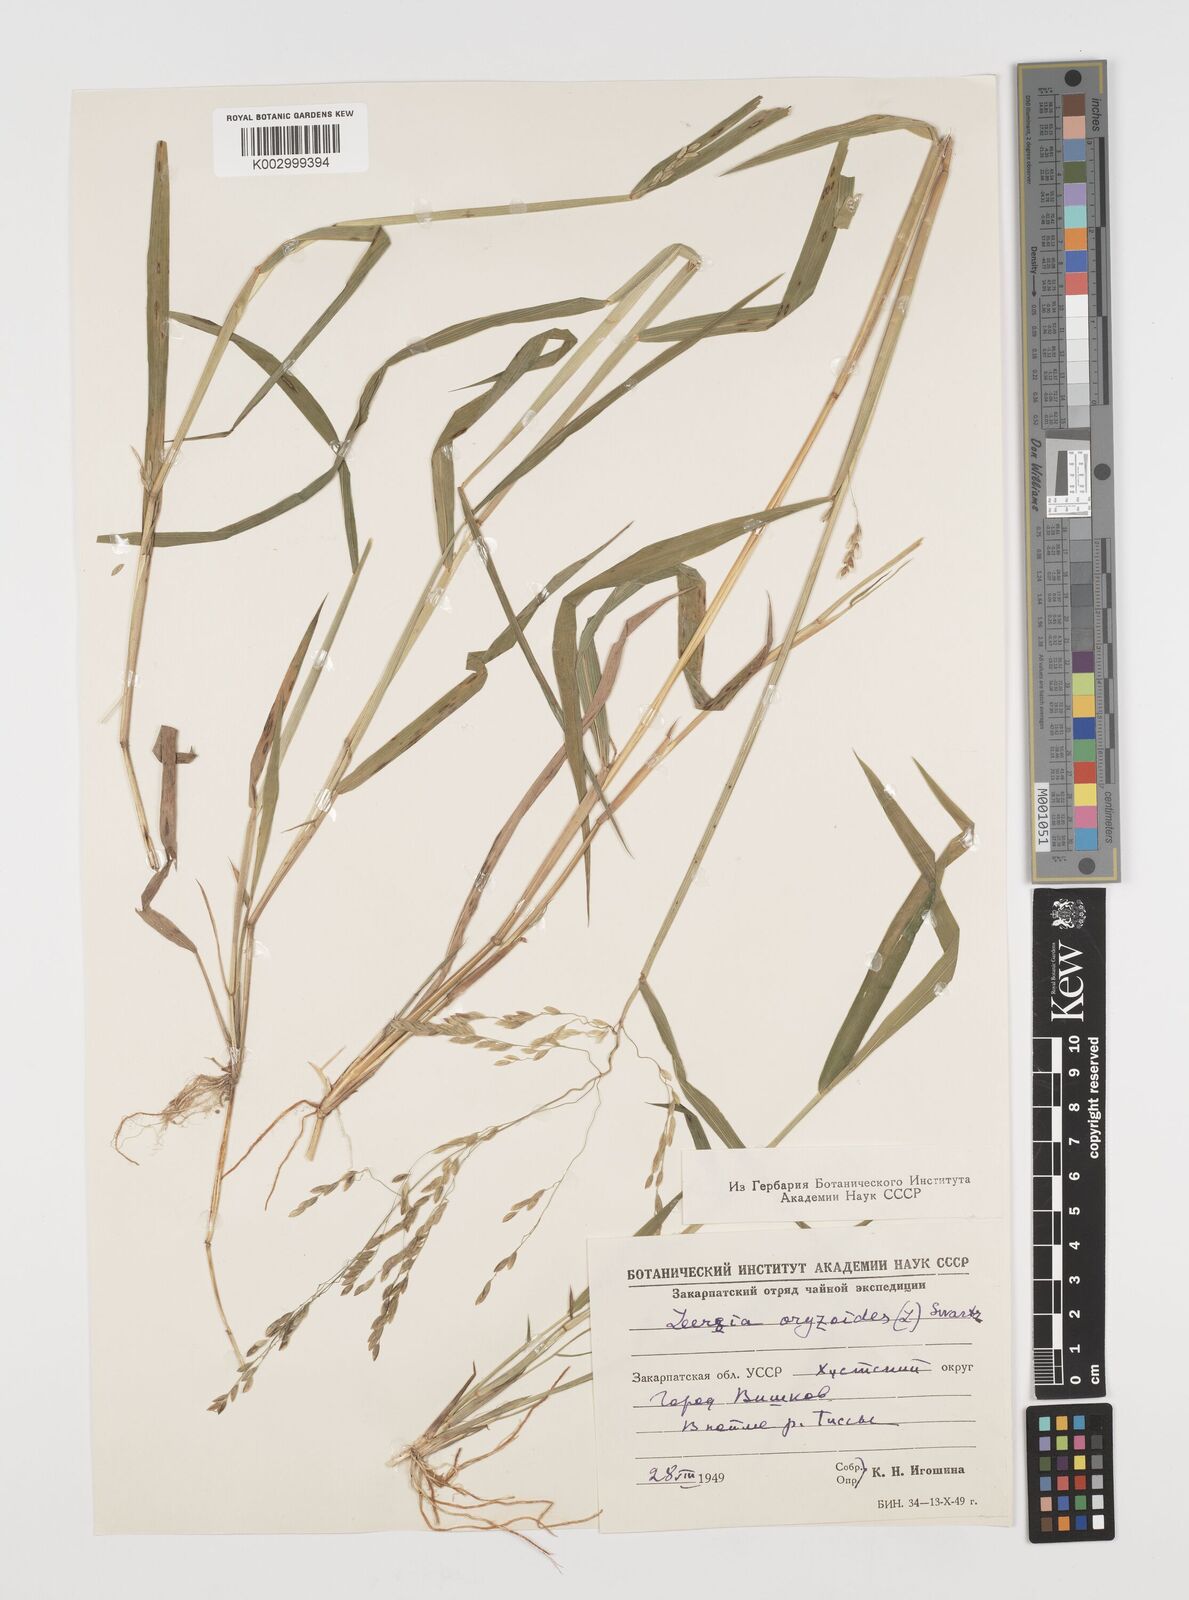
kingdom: Plantae
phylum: Tracheophyta
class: Liliopsida
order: Poales
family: Poaceae
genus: Leersia
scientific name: Leersia oryzoides
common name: Cut-grass
